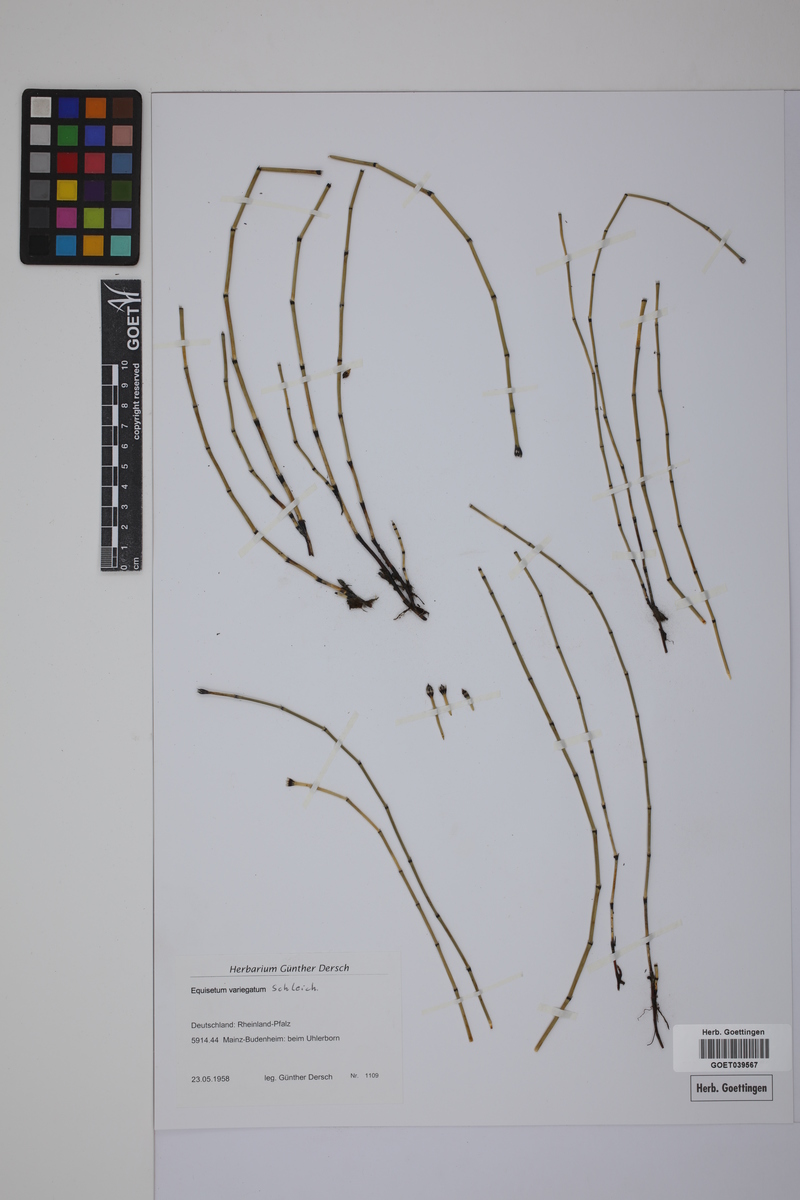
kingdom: Plantae
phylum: Tracheophyta
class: Polypodiopsida
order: Equisetales
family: Equisetaceae
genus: Equisetum
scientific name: Equisetum variegatum
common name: Variegated horsetail
